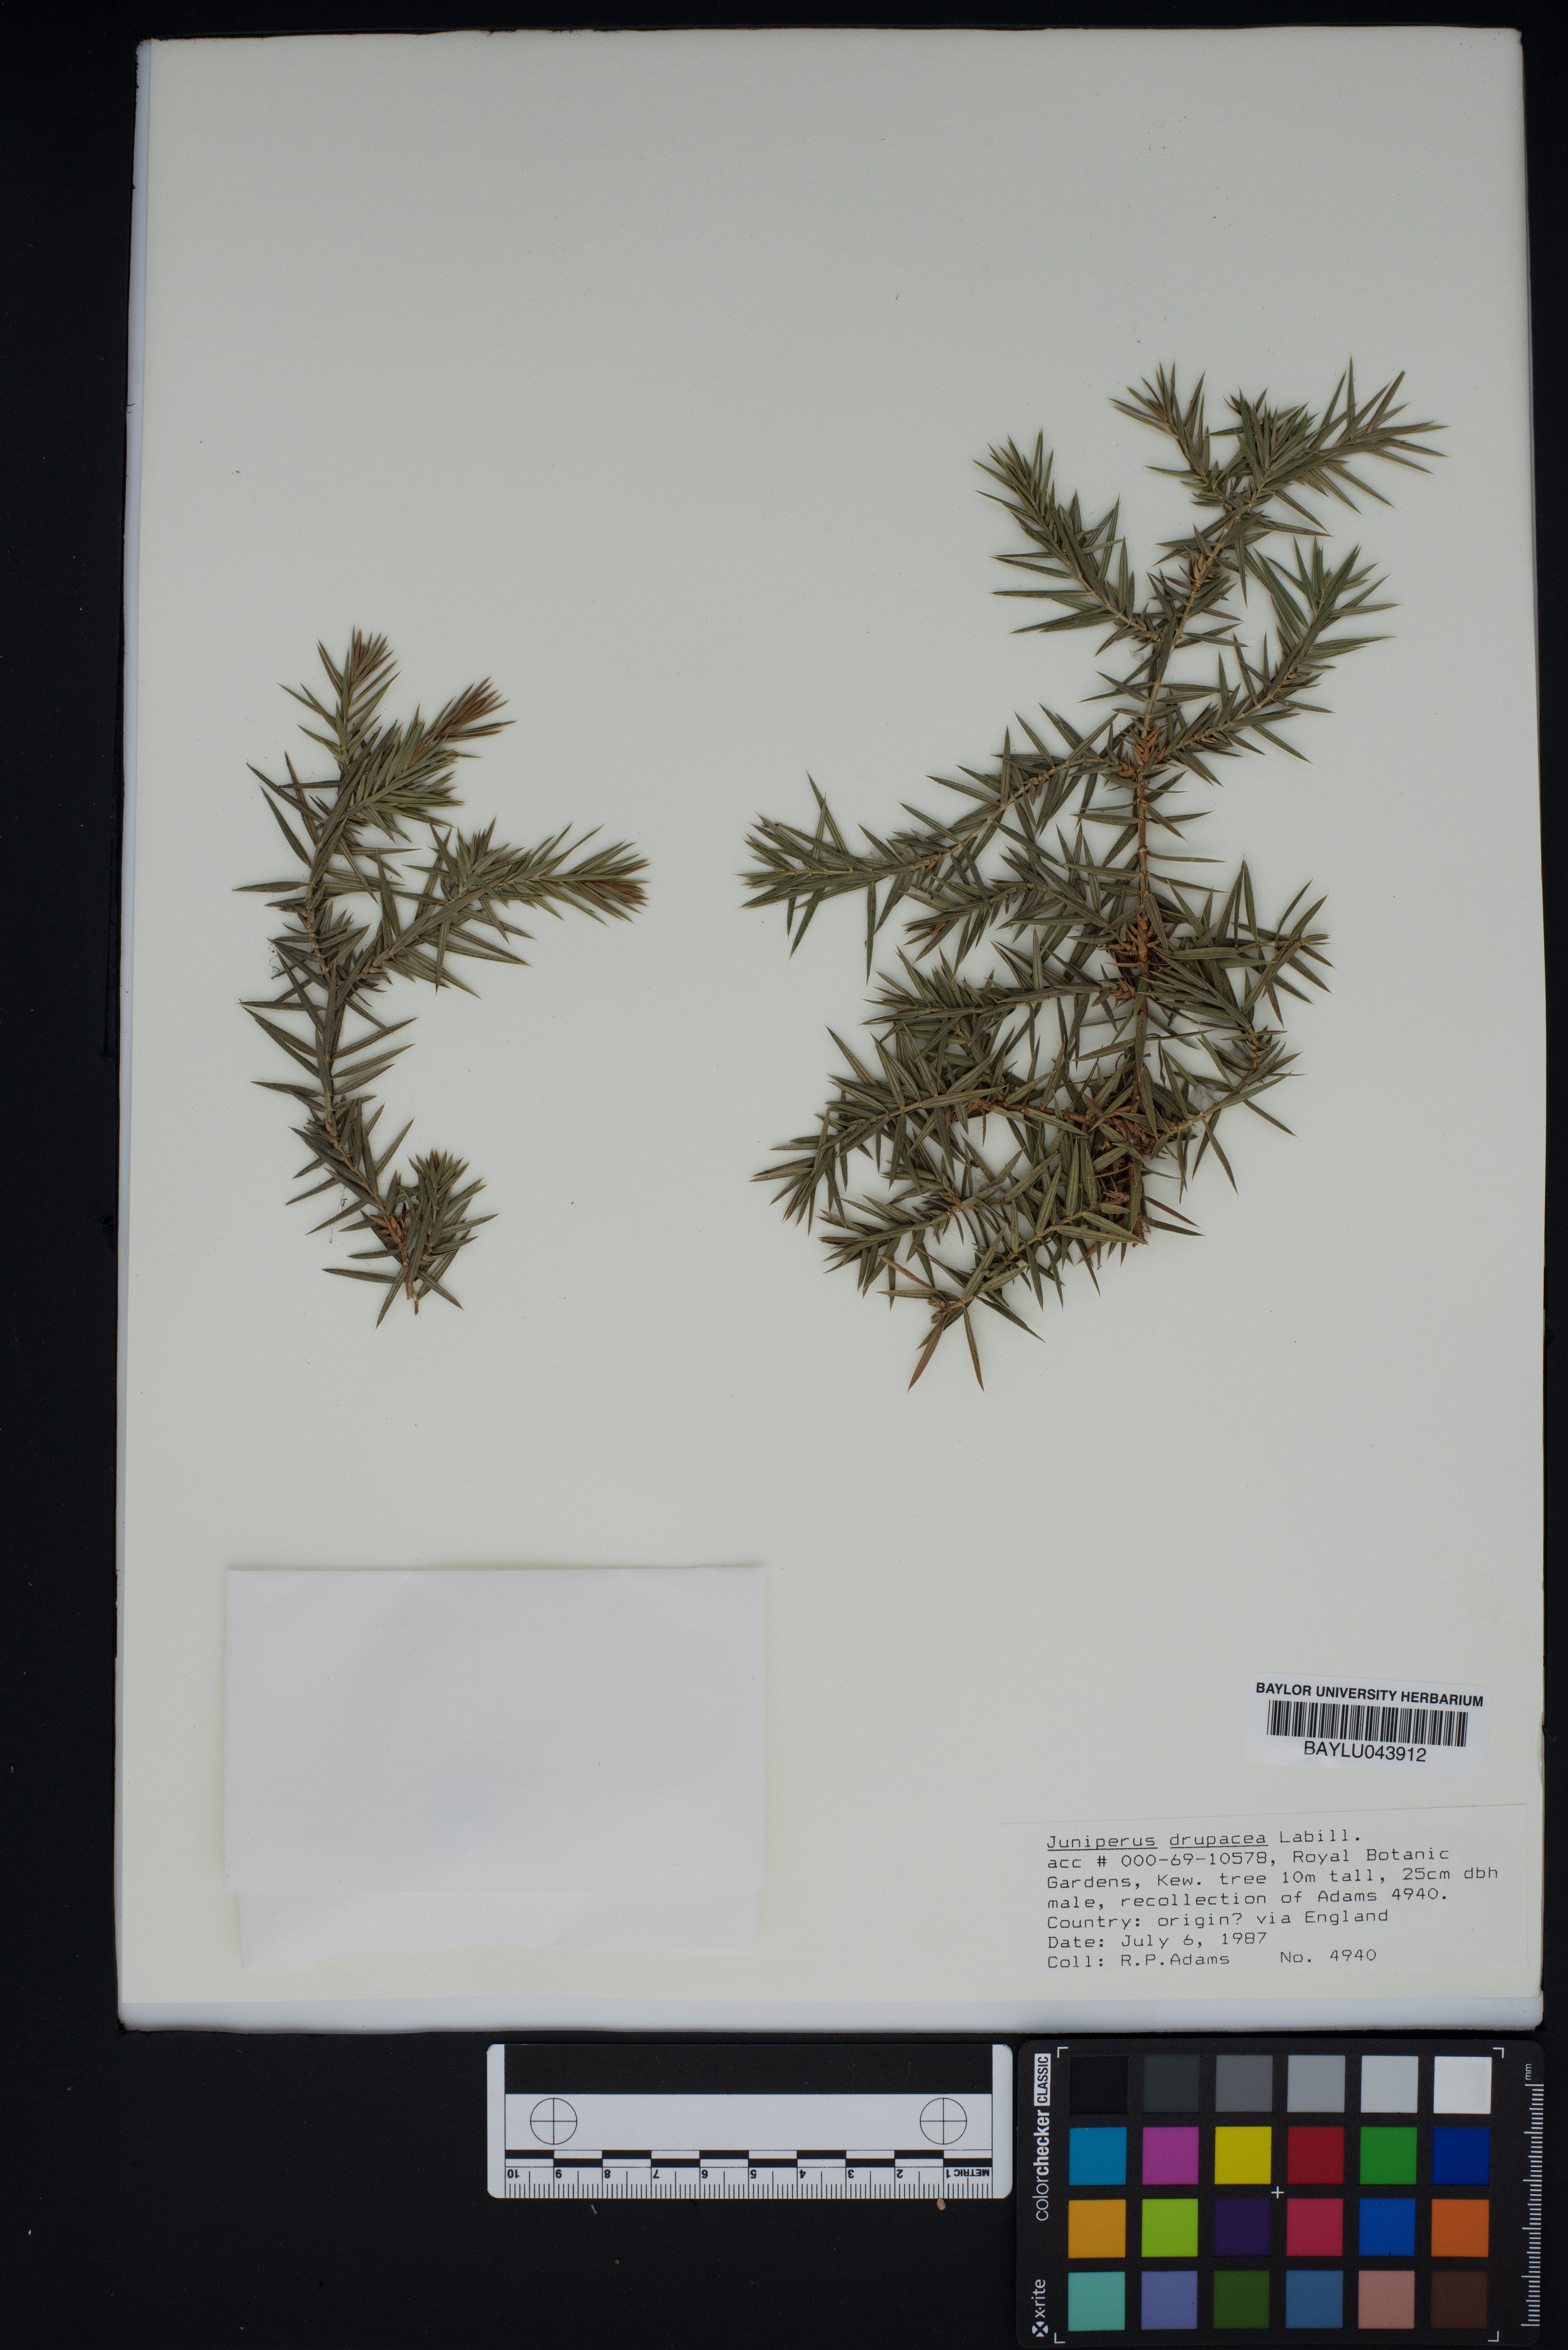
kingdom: Plantae
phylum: Tracheophyta
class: Pinopsida
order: Pinales
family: Cupressaceae
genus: Juniperus
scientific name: Juniperus drupacea
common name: Syrian juniper
